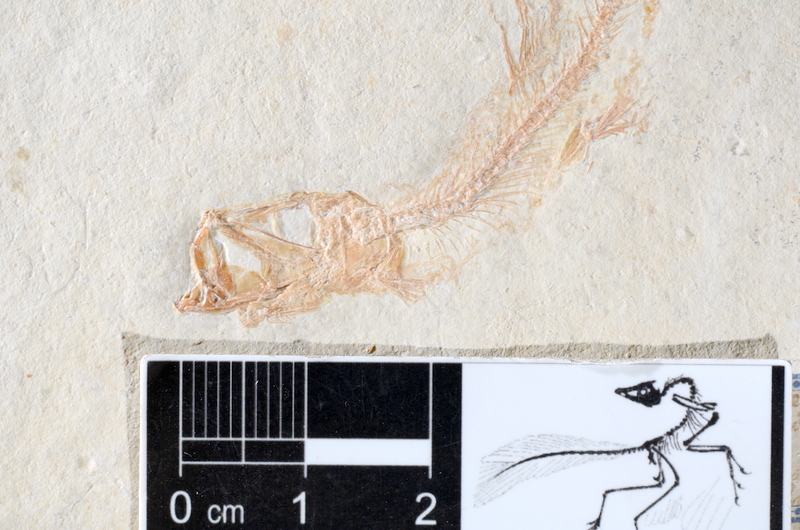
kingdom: Animalia
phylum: Chordata
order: Salmoniformes
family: Orthogonikleithridae
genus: Leptolepides
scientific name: Leptolepides sprattiformis
